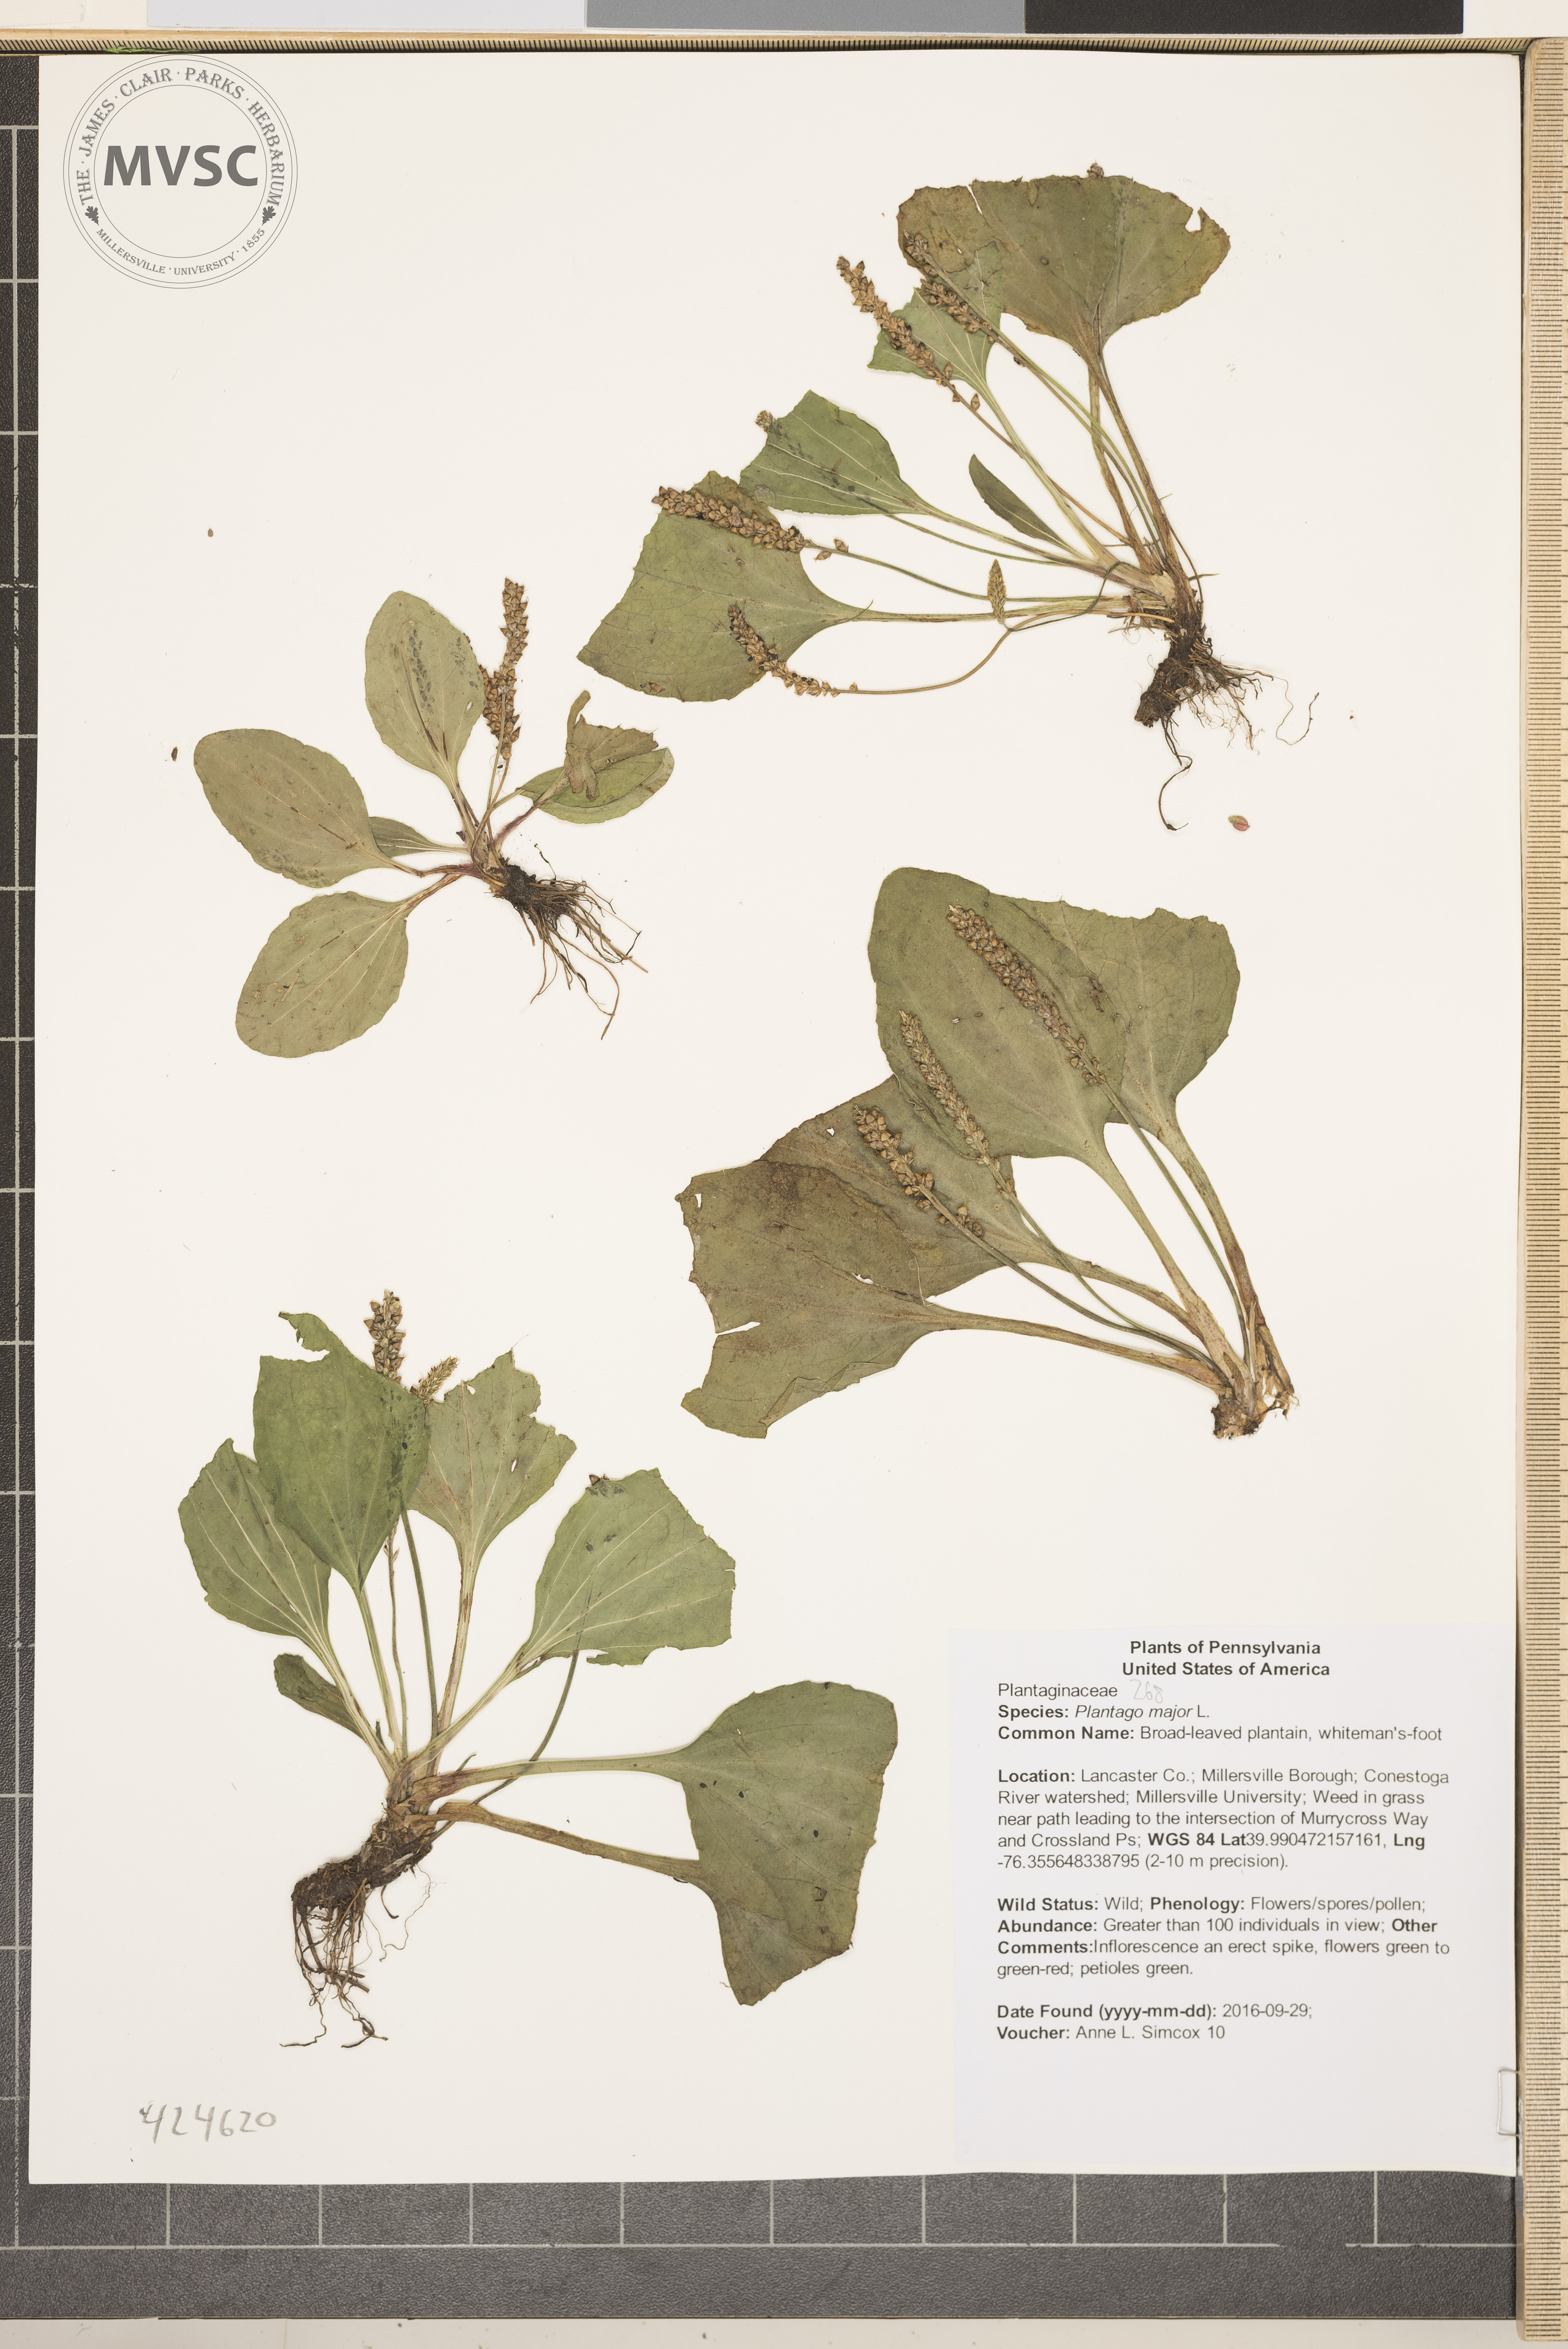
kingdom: Plantae
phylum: Tracheophyta
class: Magnoliopsida
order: Lamiales
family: Plantaginaceae
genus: Plantago
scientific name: Plantago major
